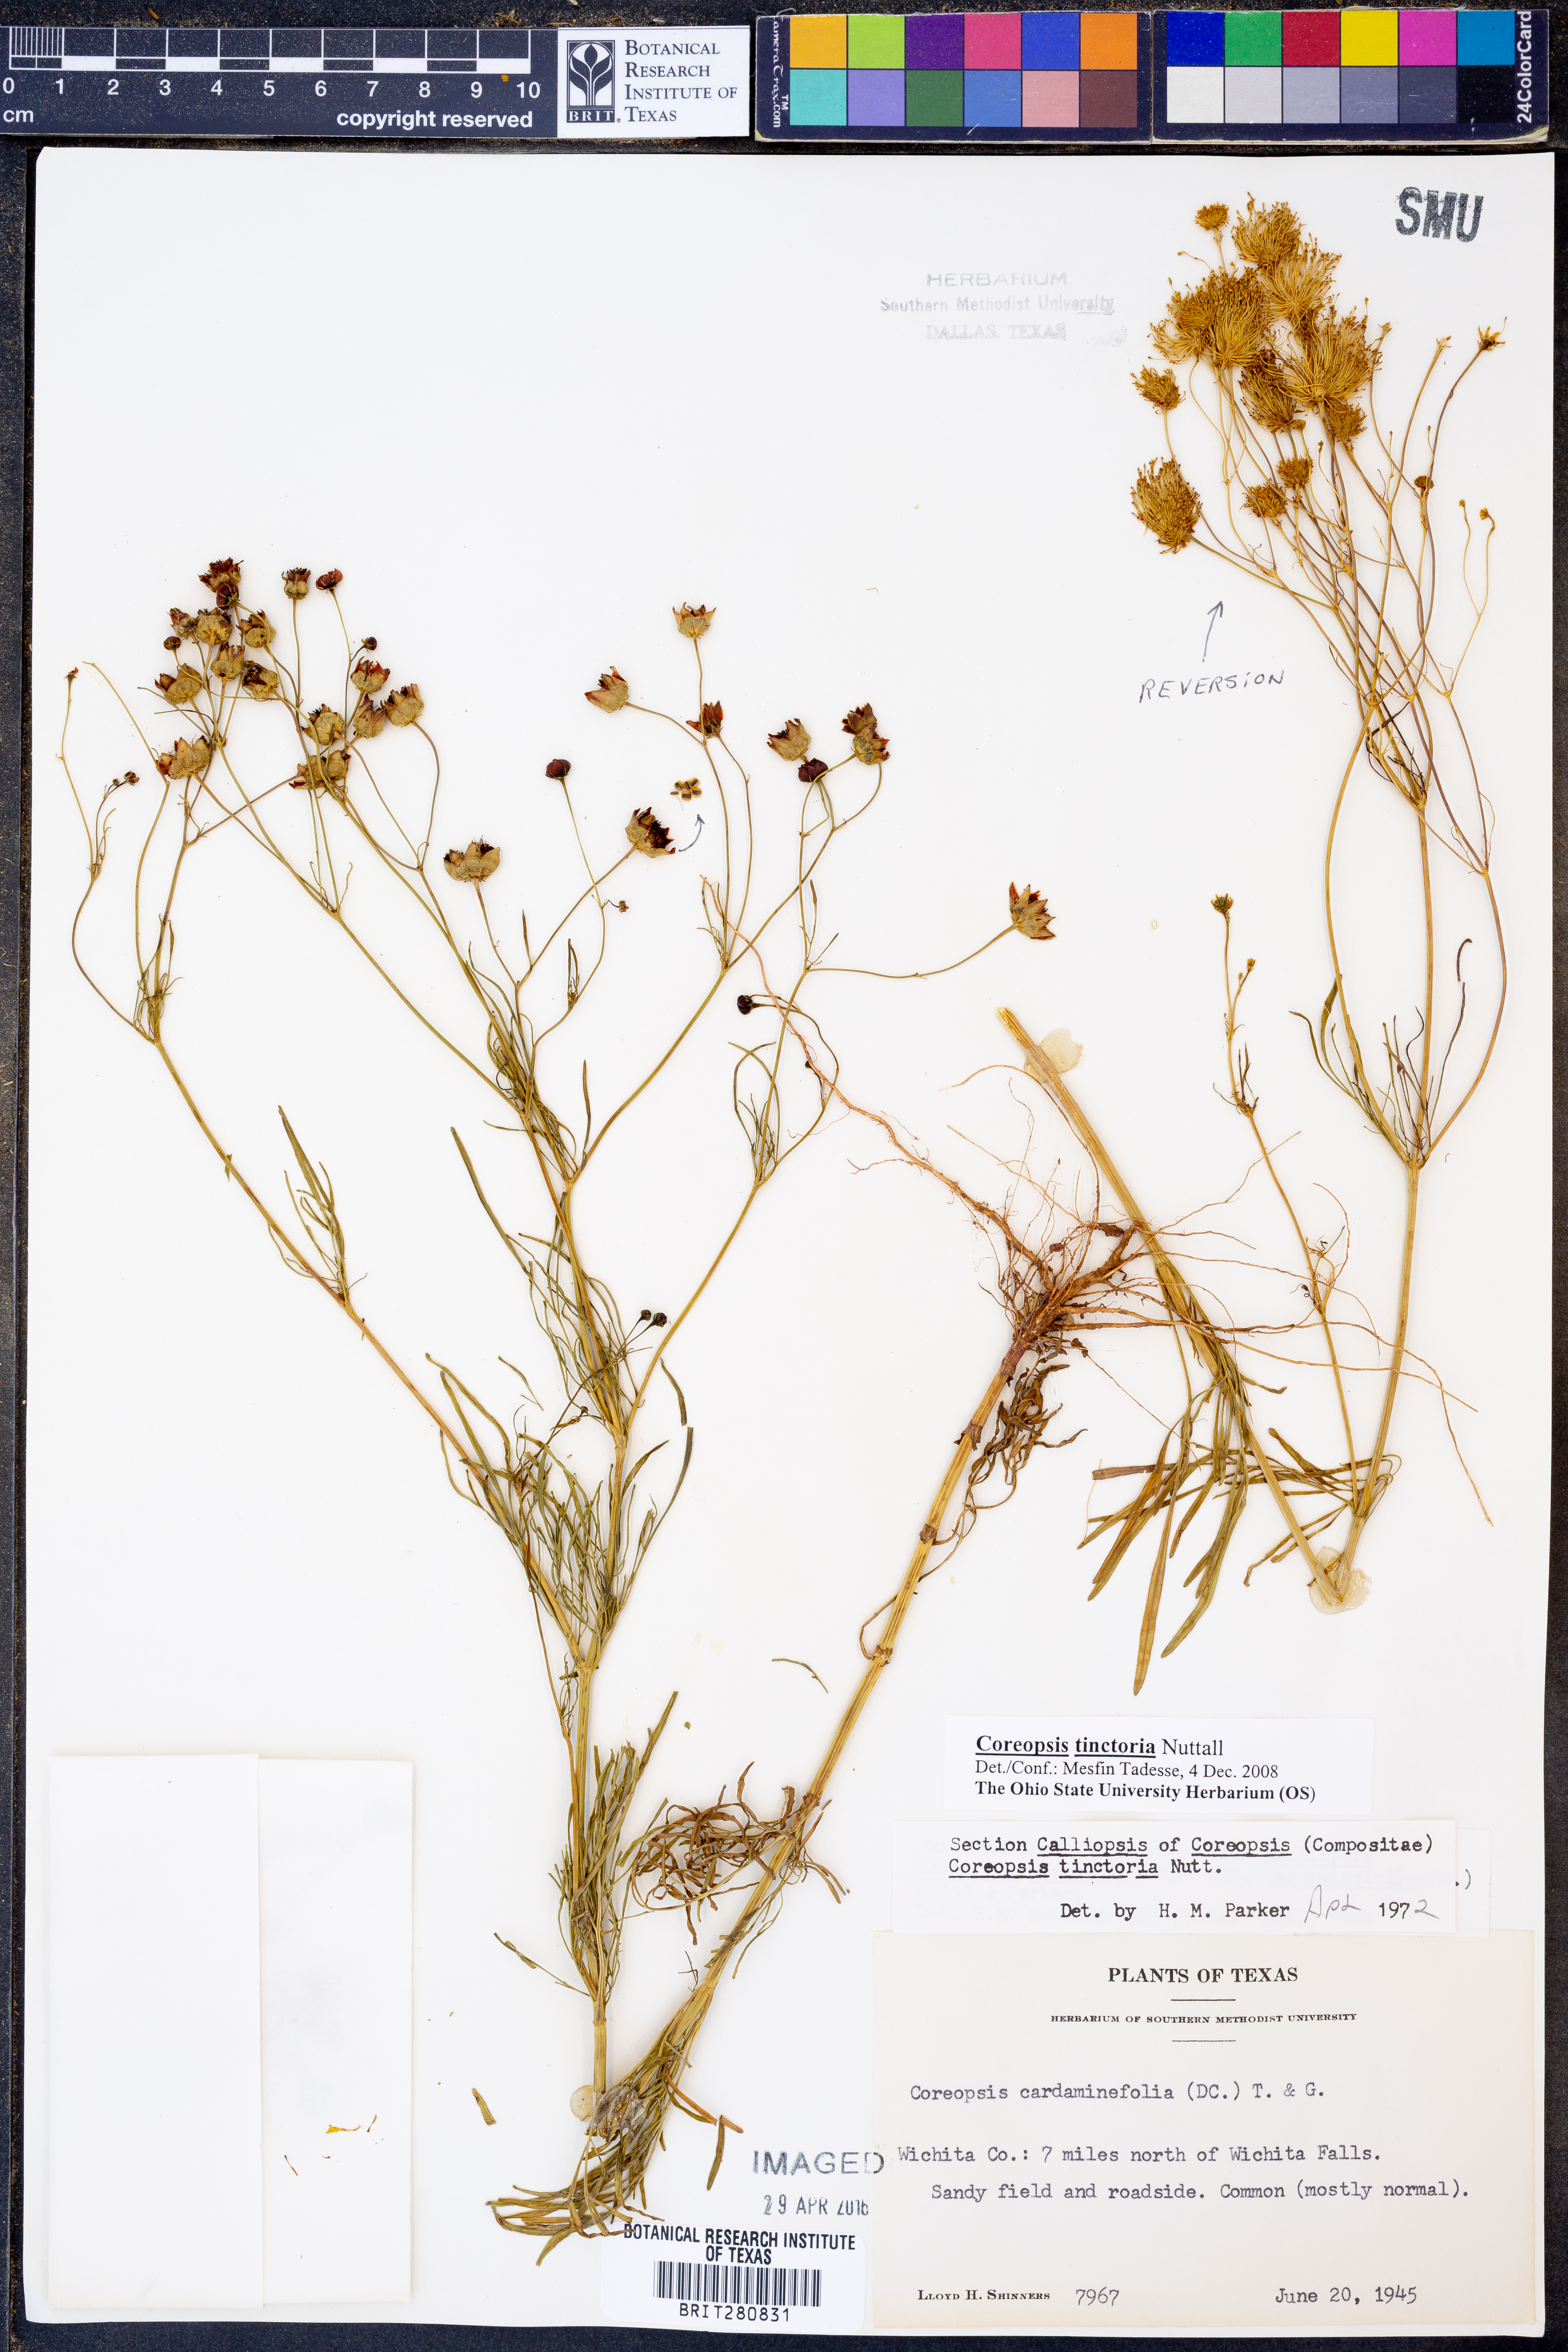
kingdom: Plantae
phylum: Tracheophyta
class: Magnoliopsida
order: Asterales
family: Asteraceae
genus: Coreopsis
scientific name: Coreopsis tinctoria
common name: Garden tickseed
